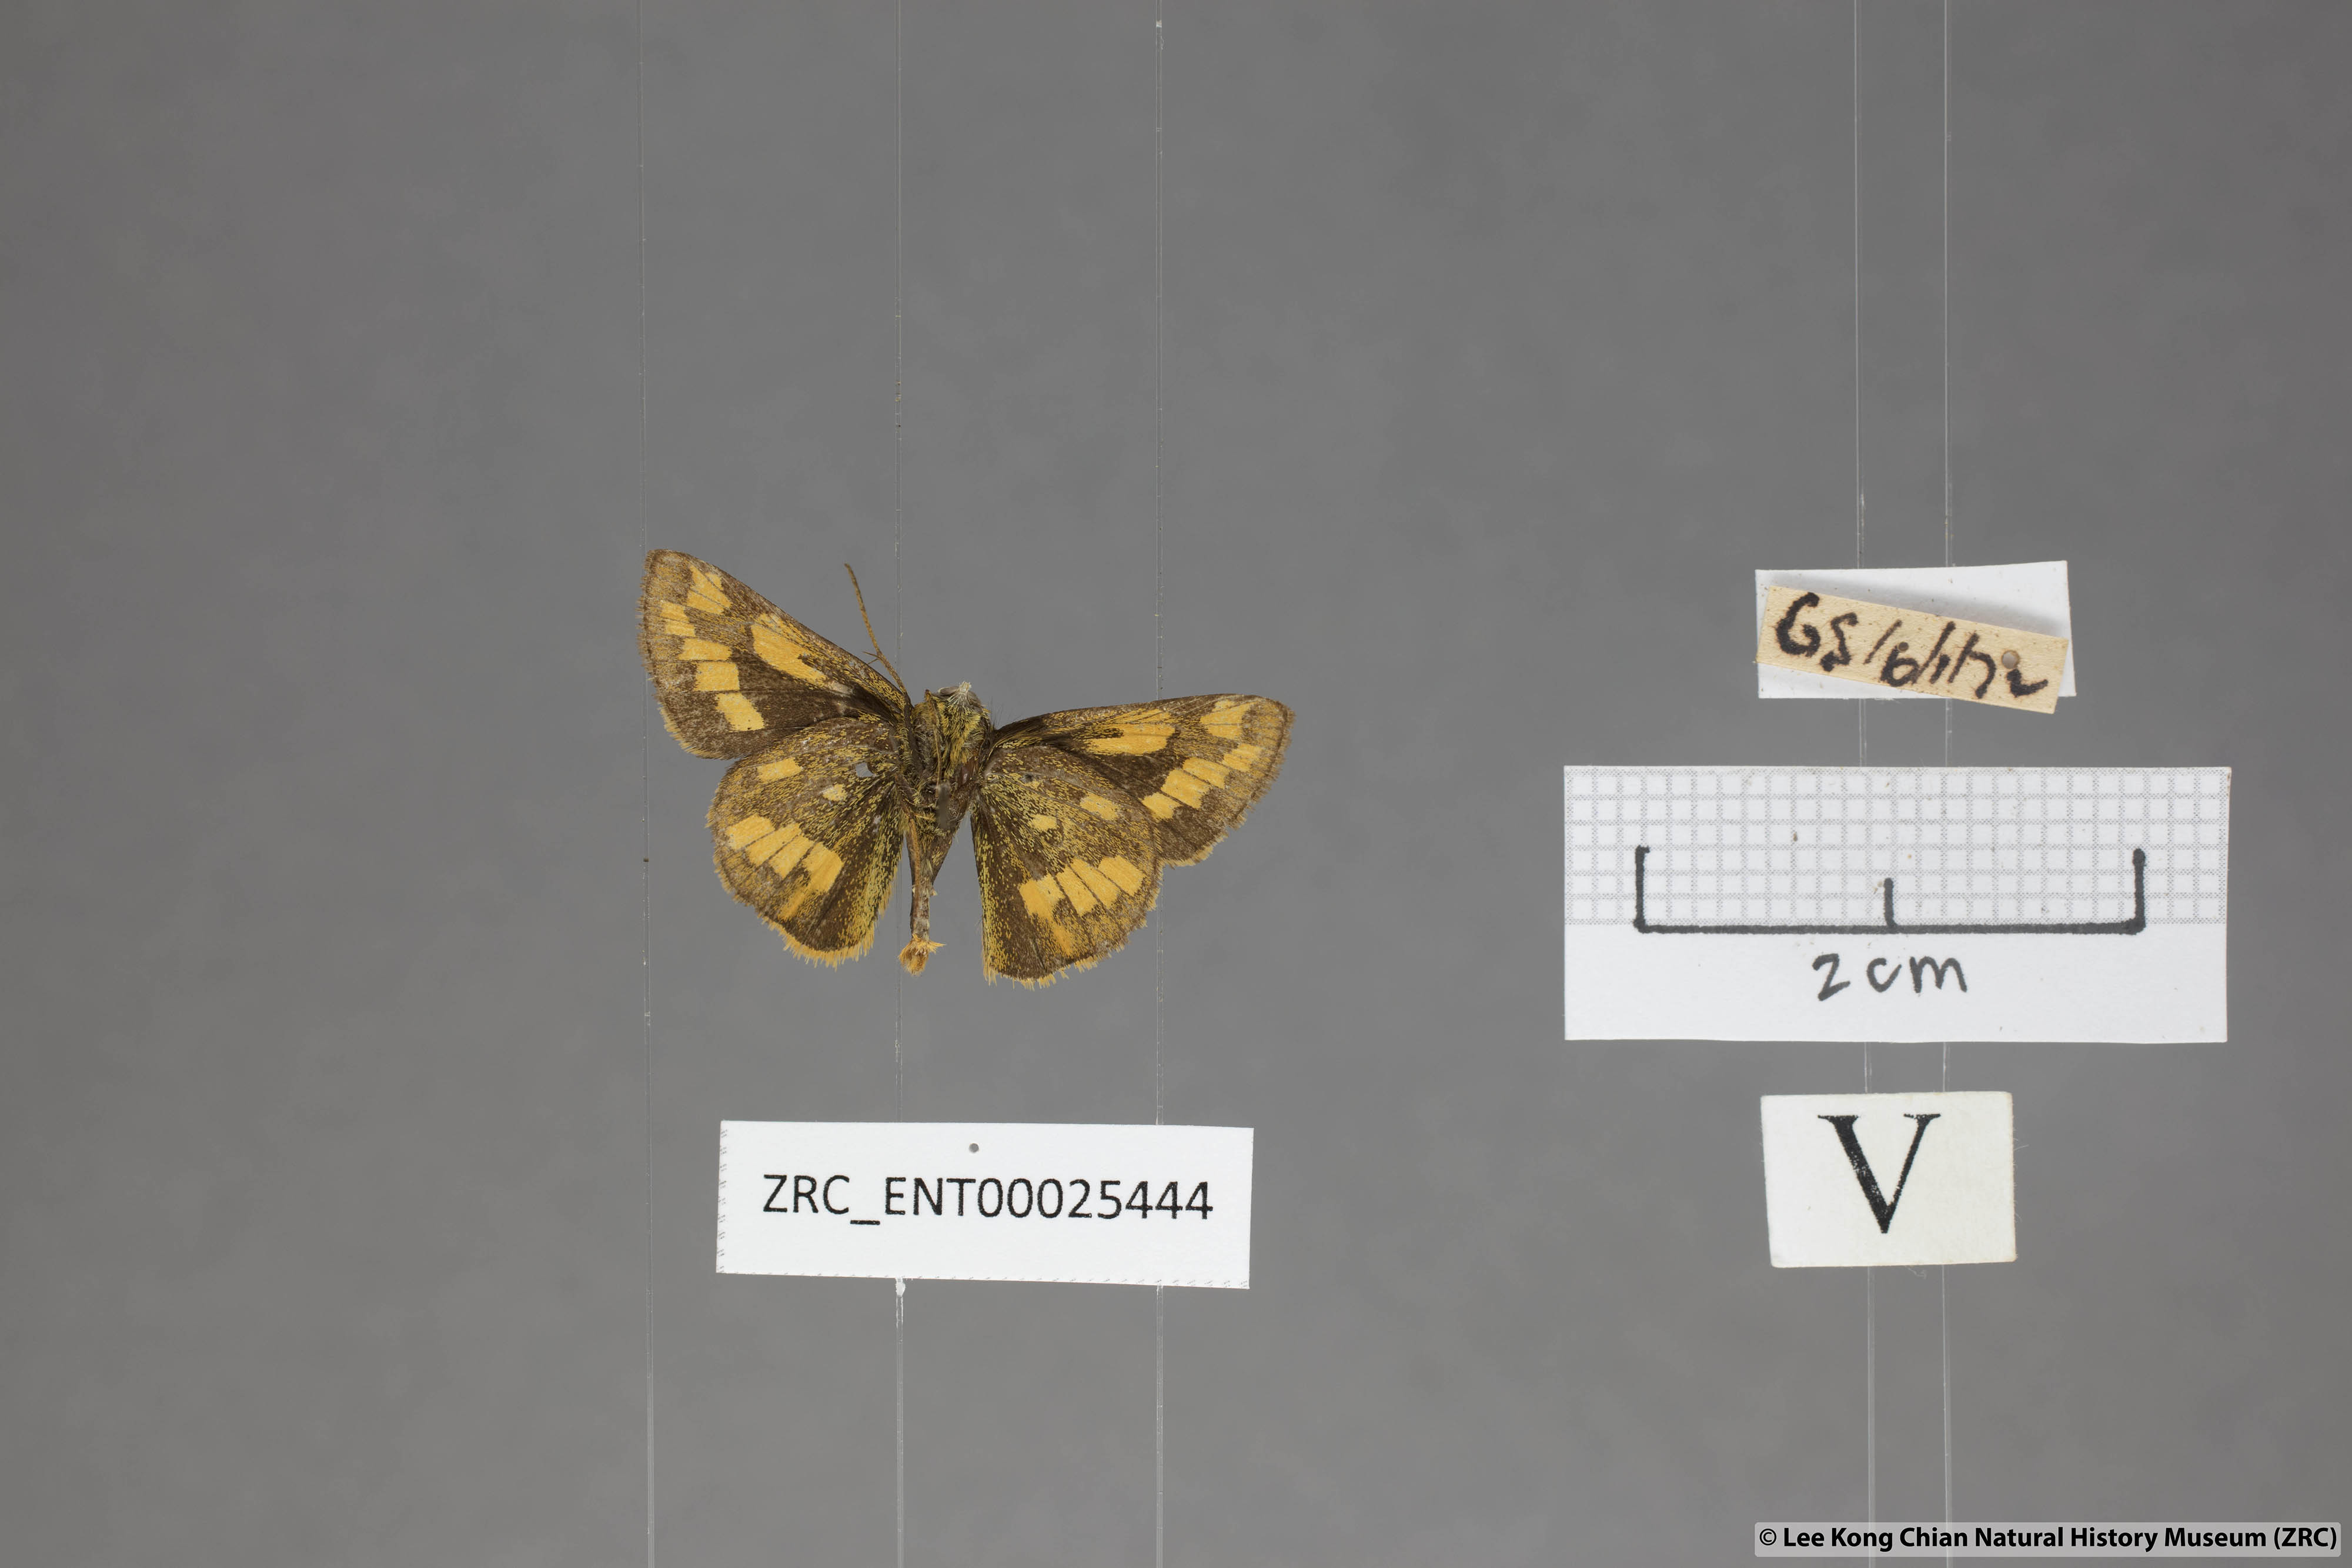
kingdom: Animalia
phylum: Arthropoda
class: Insecta
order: Lepidoptera
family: Hesperiidae
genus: Potanthus
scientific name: Potanthus omaha
